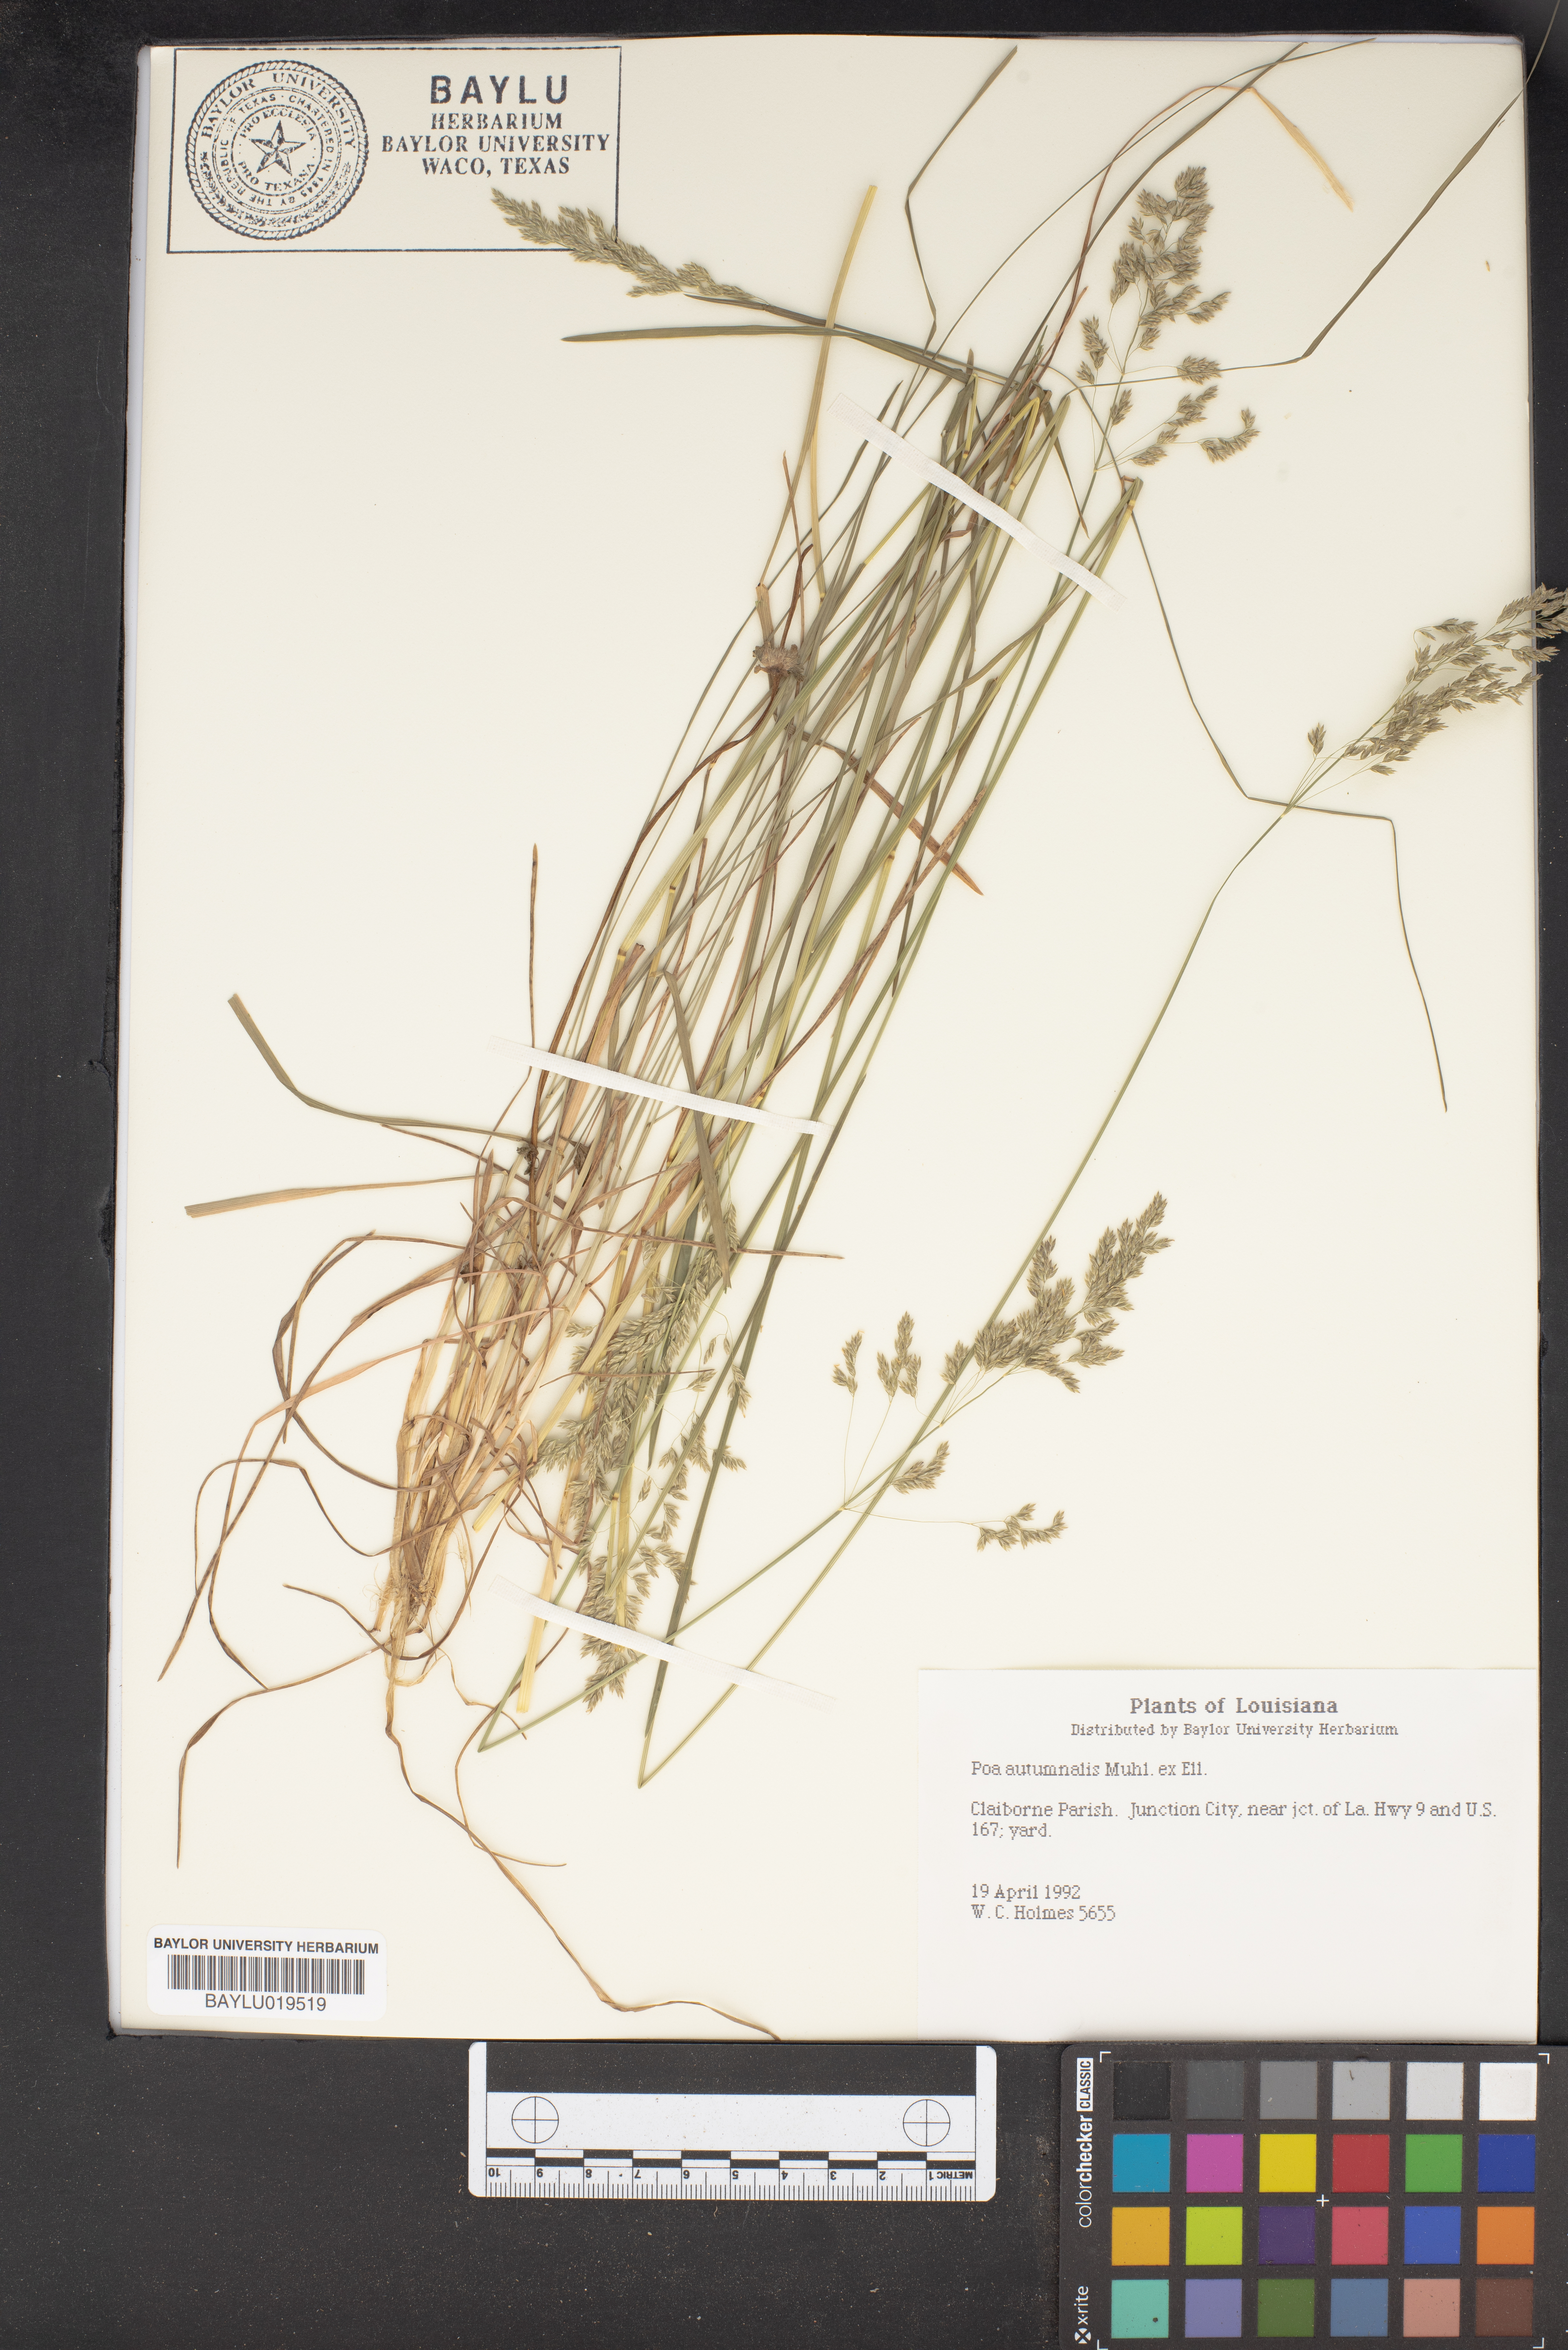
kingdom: Plantae
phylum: Tracheophyta
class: Liliopsida
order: Poales
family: Poaceae
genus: Poa
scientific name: Poa autumnalis
